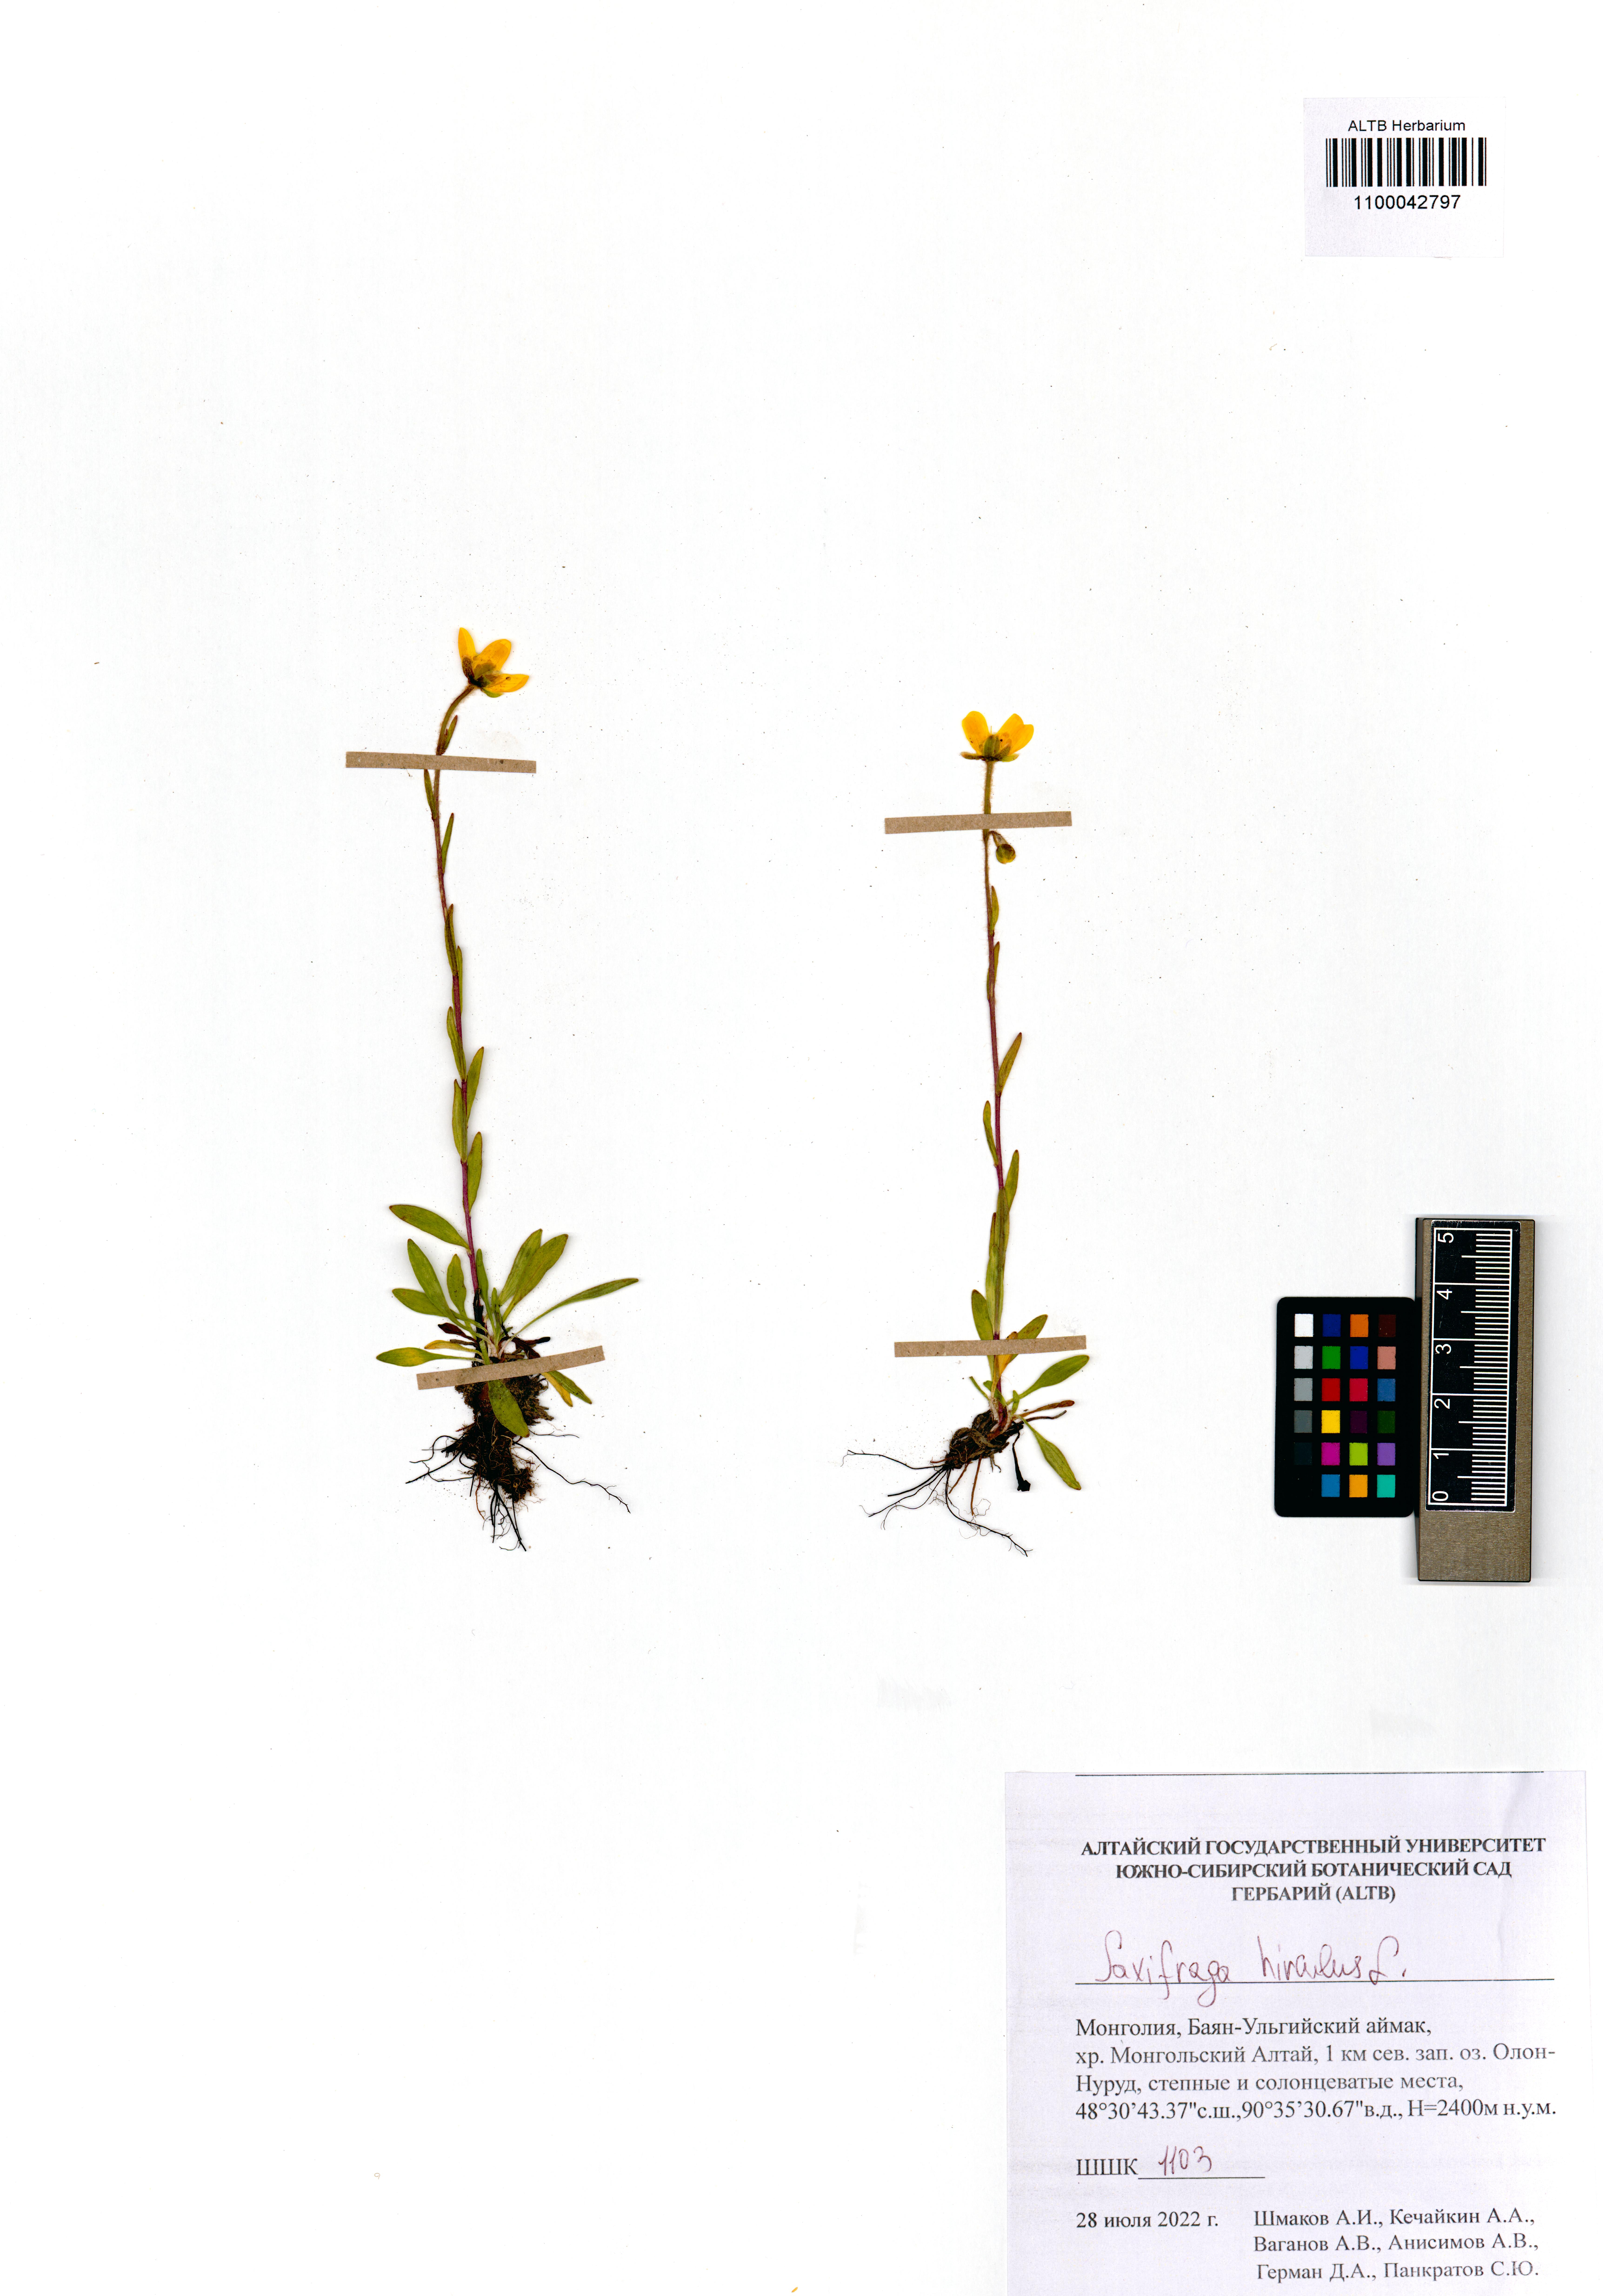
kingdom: Plantae
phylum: Tracheophyta
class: Magnoliopsida
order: Saxifragales
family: Saxifragaceae
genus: Saxifraga
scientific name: Saxifraga hirculus
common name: Yellow marsh saxifrage
